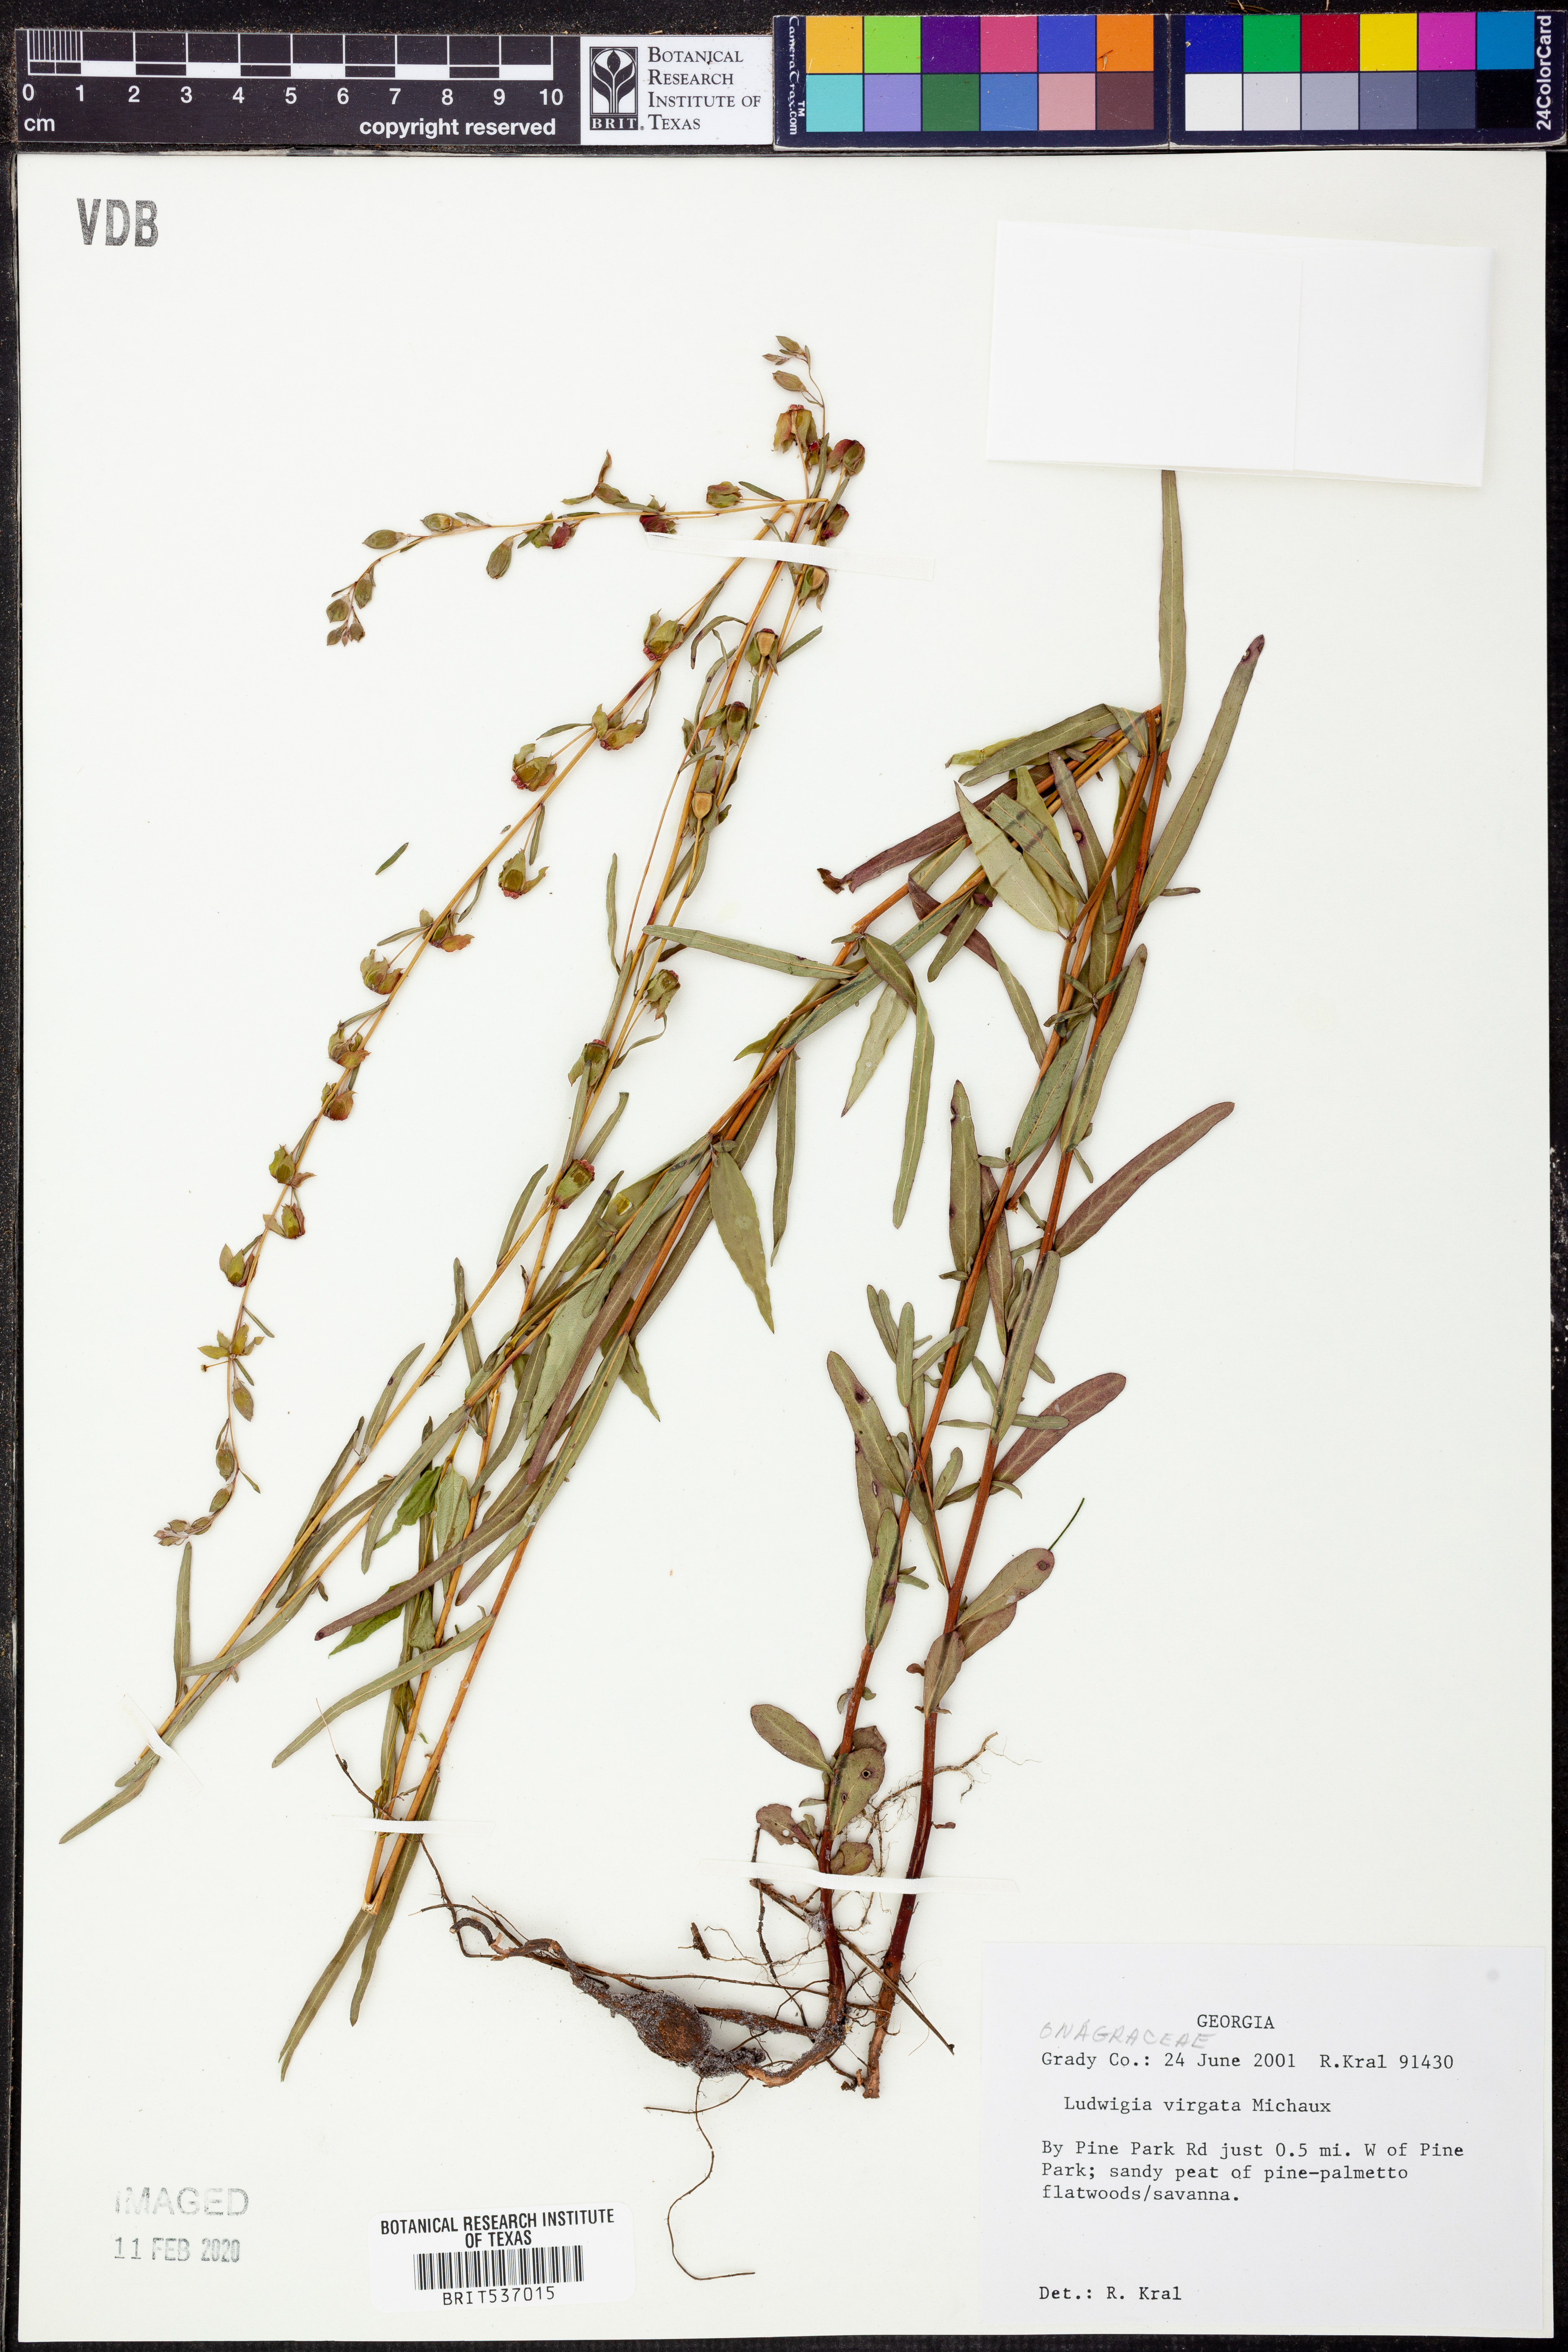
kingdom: Plantae
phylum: Tracheophyta
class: Magnoliopsida
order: Myrtales
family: Onagraceae
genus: Ludwigia
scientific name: Ludwigia virgata
